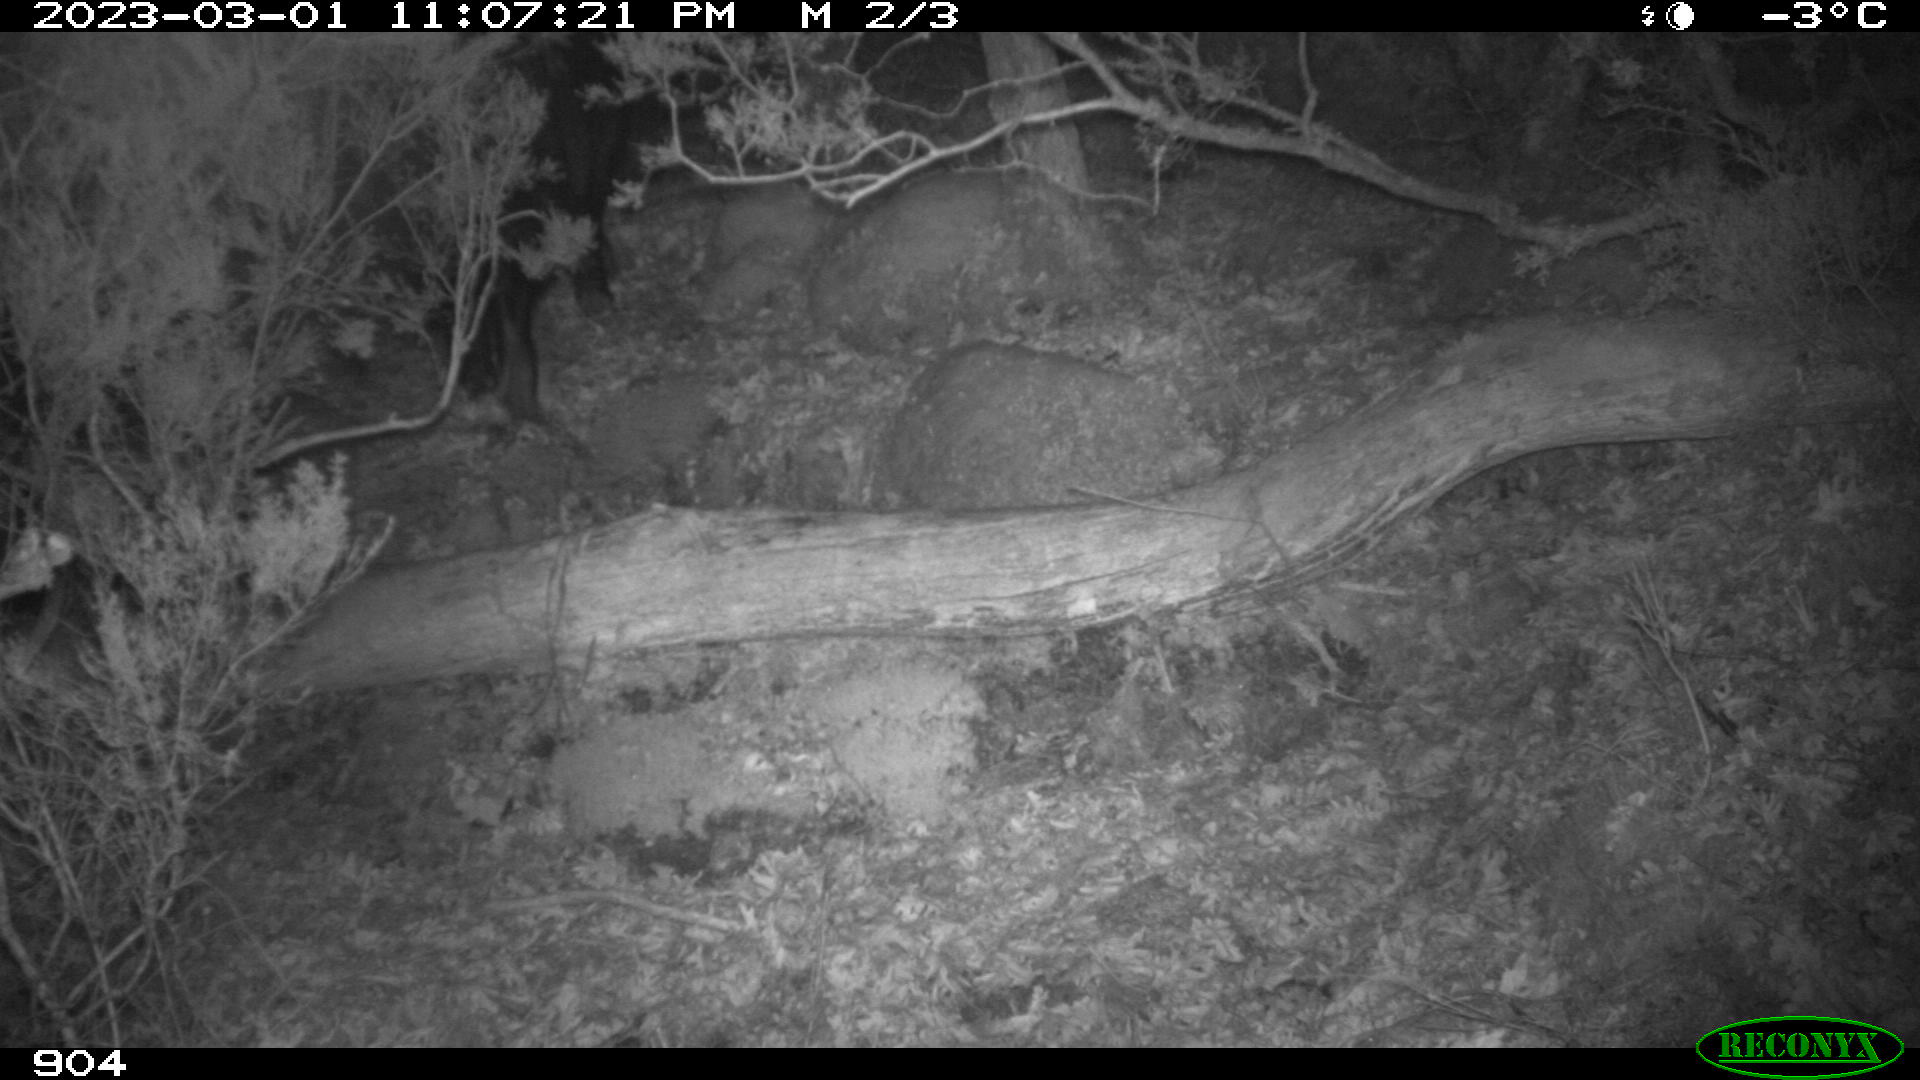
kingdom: Animalia
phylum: Chordata
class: Mammalia
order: Artiodactyla
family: Suidae
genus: Sus
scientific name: Sus scrofa
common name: Wild boar
